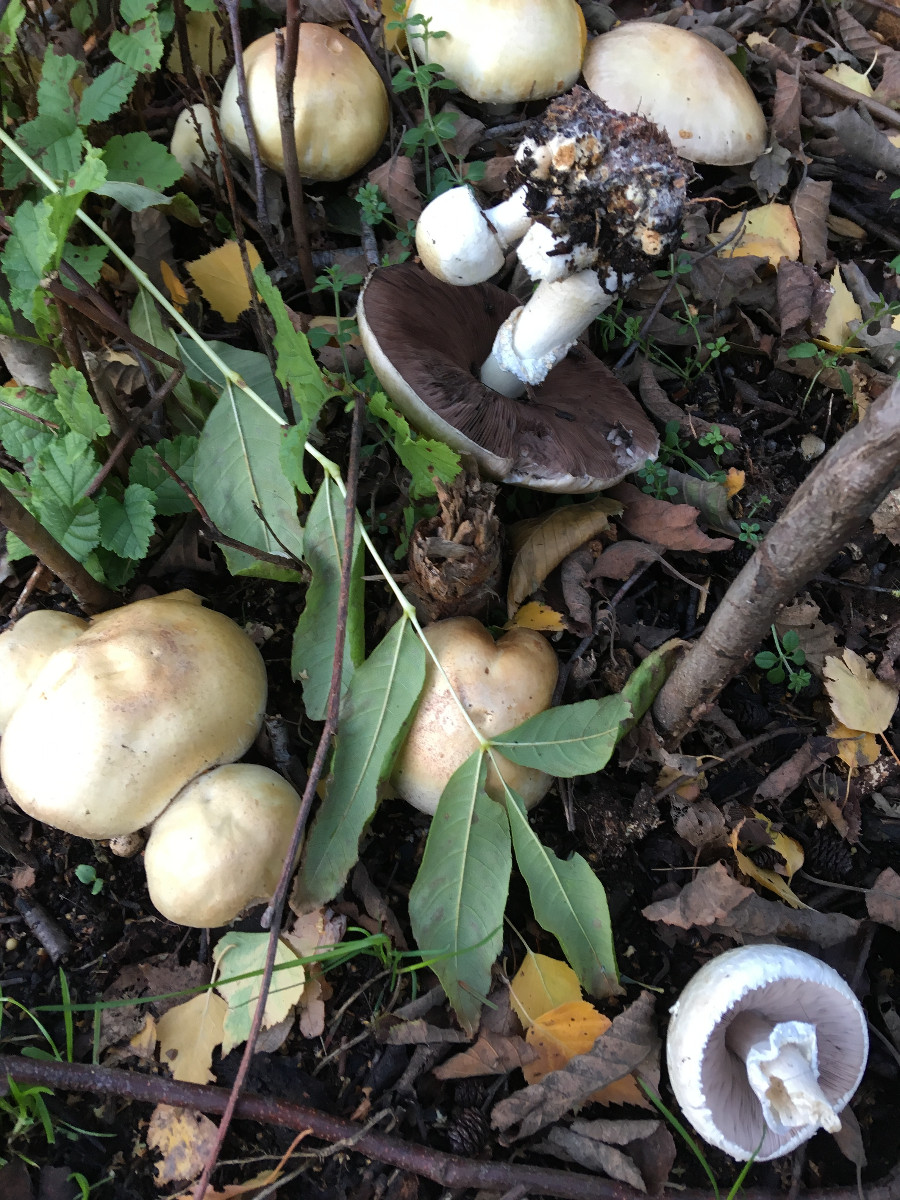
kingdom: Fungi
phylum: Basidiomycota
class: Agaricomycetes
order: Agaricales
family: Agaricaceae
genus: Agaricus
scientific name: Agaricus
